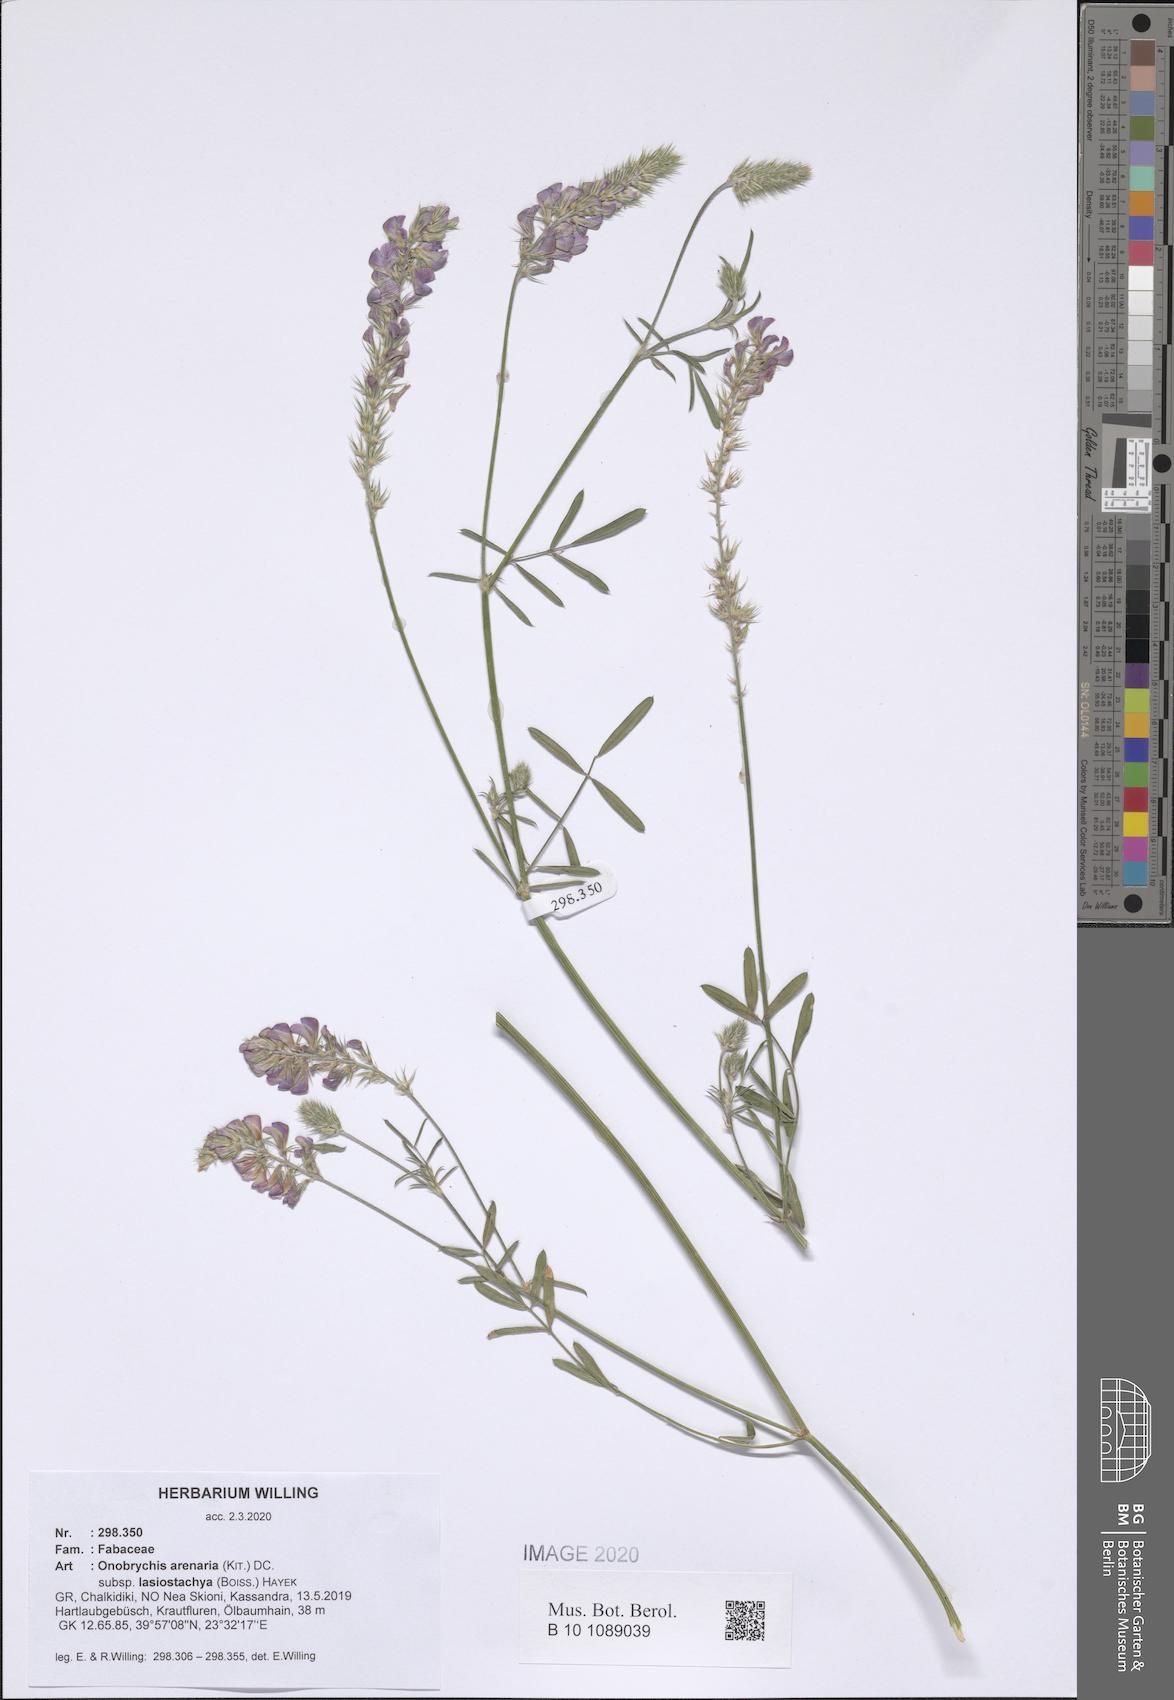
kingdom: Plantae
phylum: Tracheophyta
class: Magnoliopsida
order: Fabales
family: Fabaceae
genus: Onobrychis
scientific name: Onobrychis arenaria
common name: Sand esparcet
